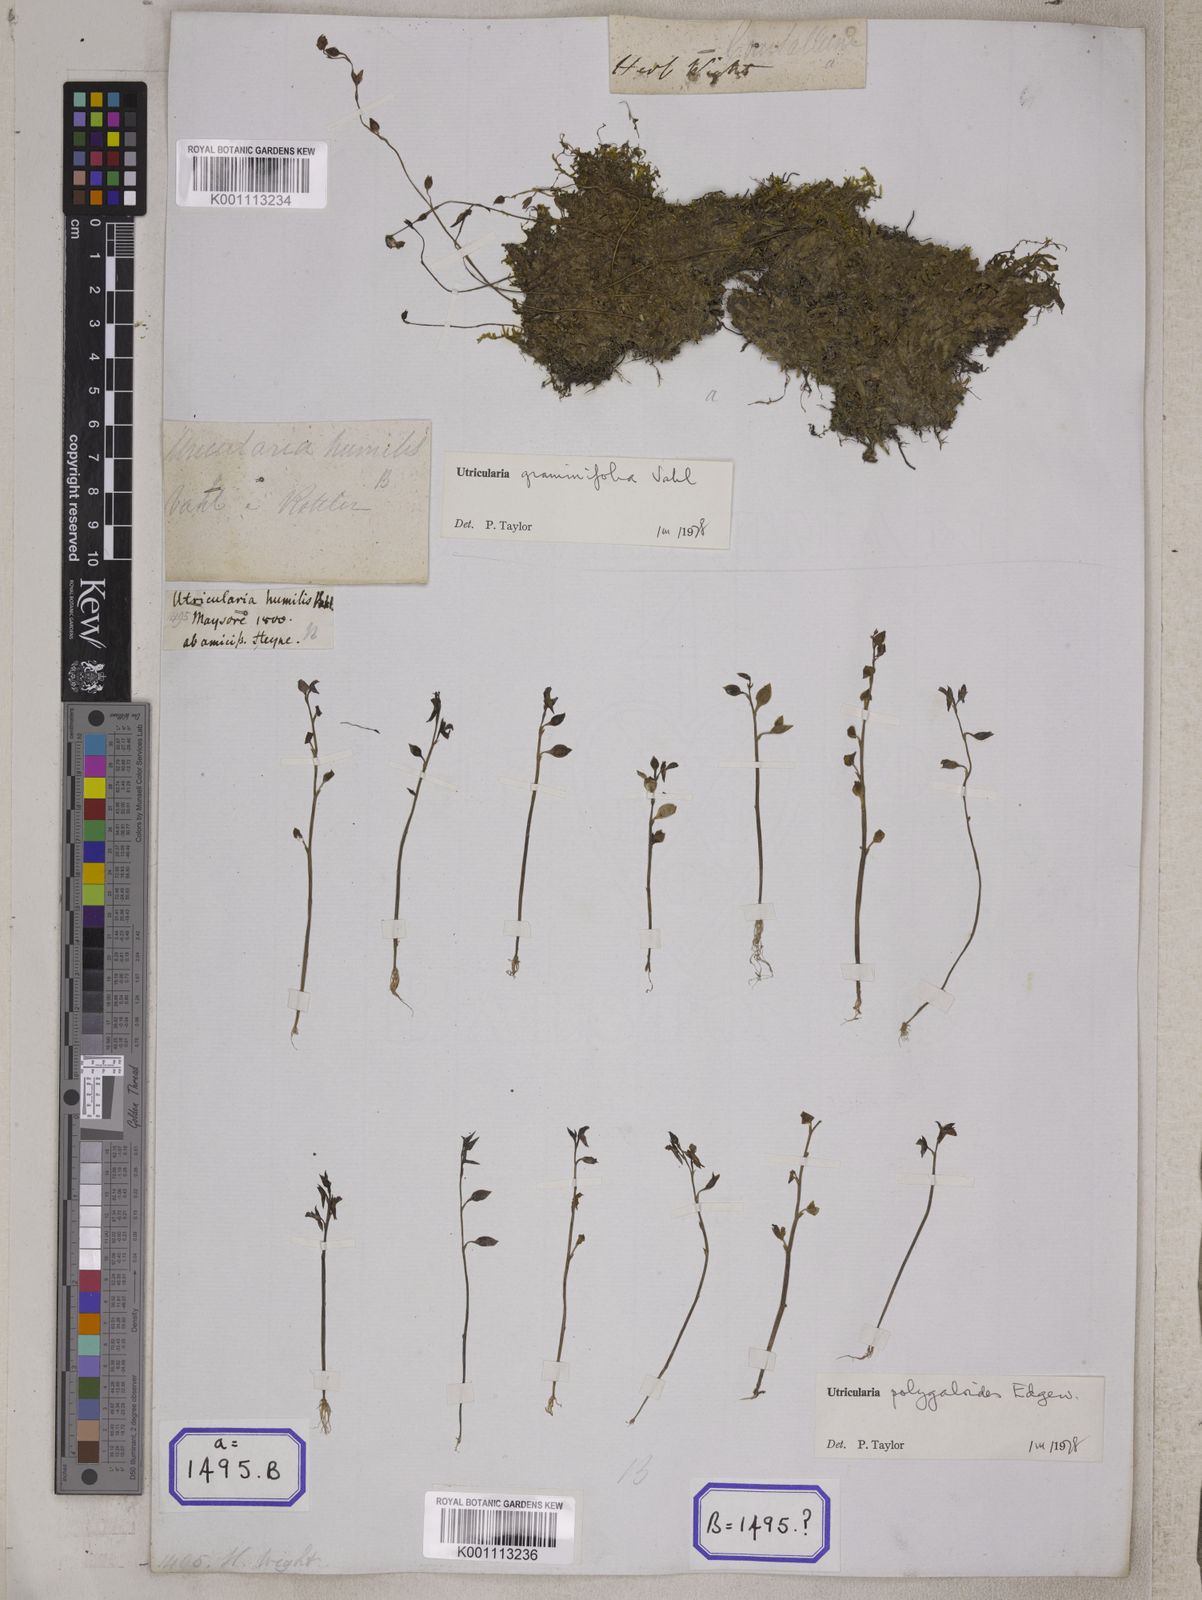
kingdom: Plantae
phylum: Tracheophyta
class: Magnoliopsida
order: Lamiales
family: Lentibulariaceae
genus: Utricularia
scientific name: Utricularia
